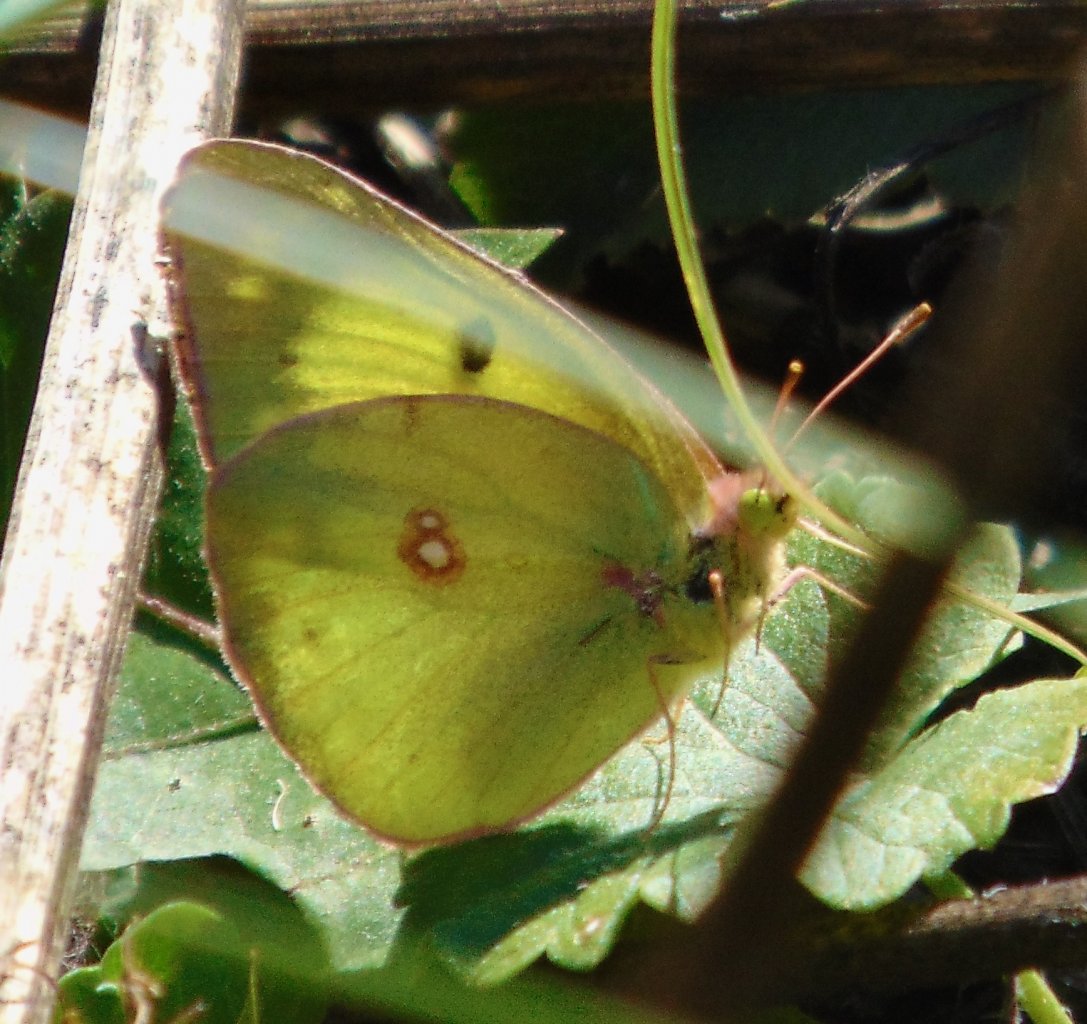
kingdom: Animalia
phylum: Arthropoda
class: Insecta
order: Lepidoptera
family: Pieridae
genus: Colias
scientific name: Colias philodice
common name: Clouded Sulphur
